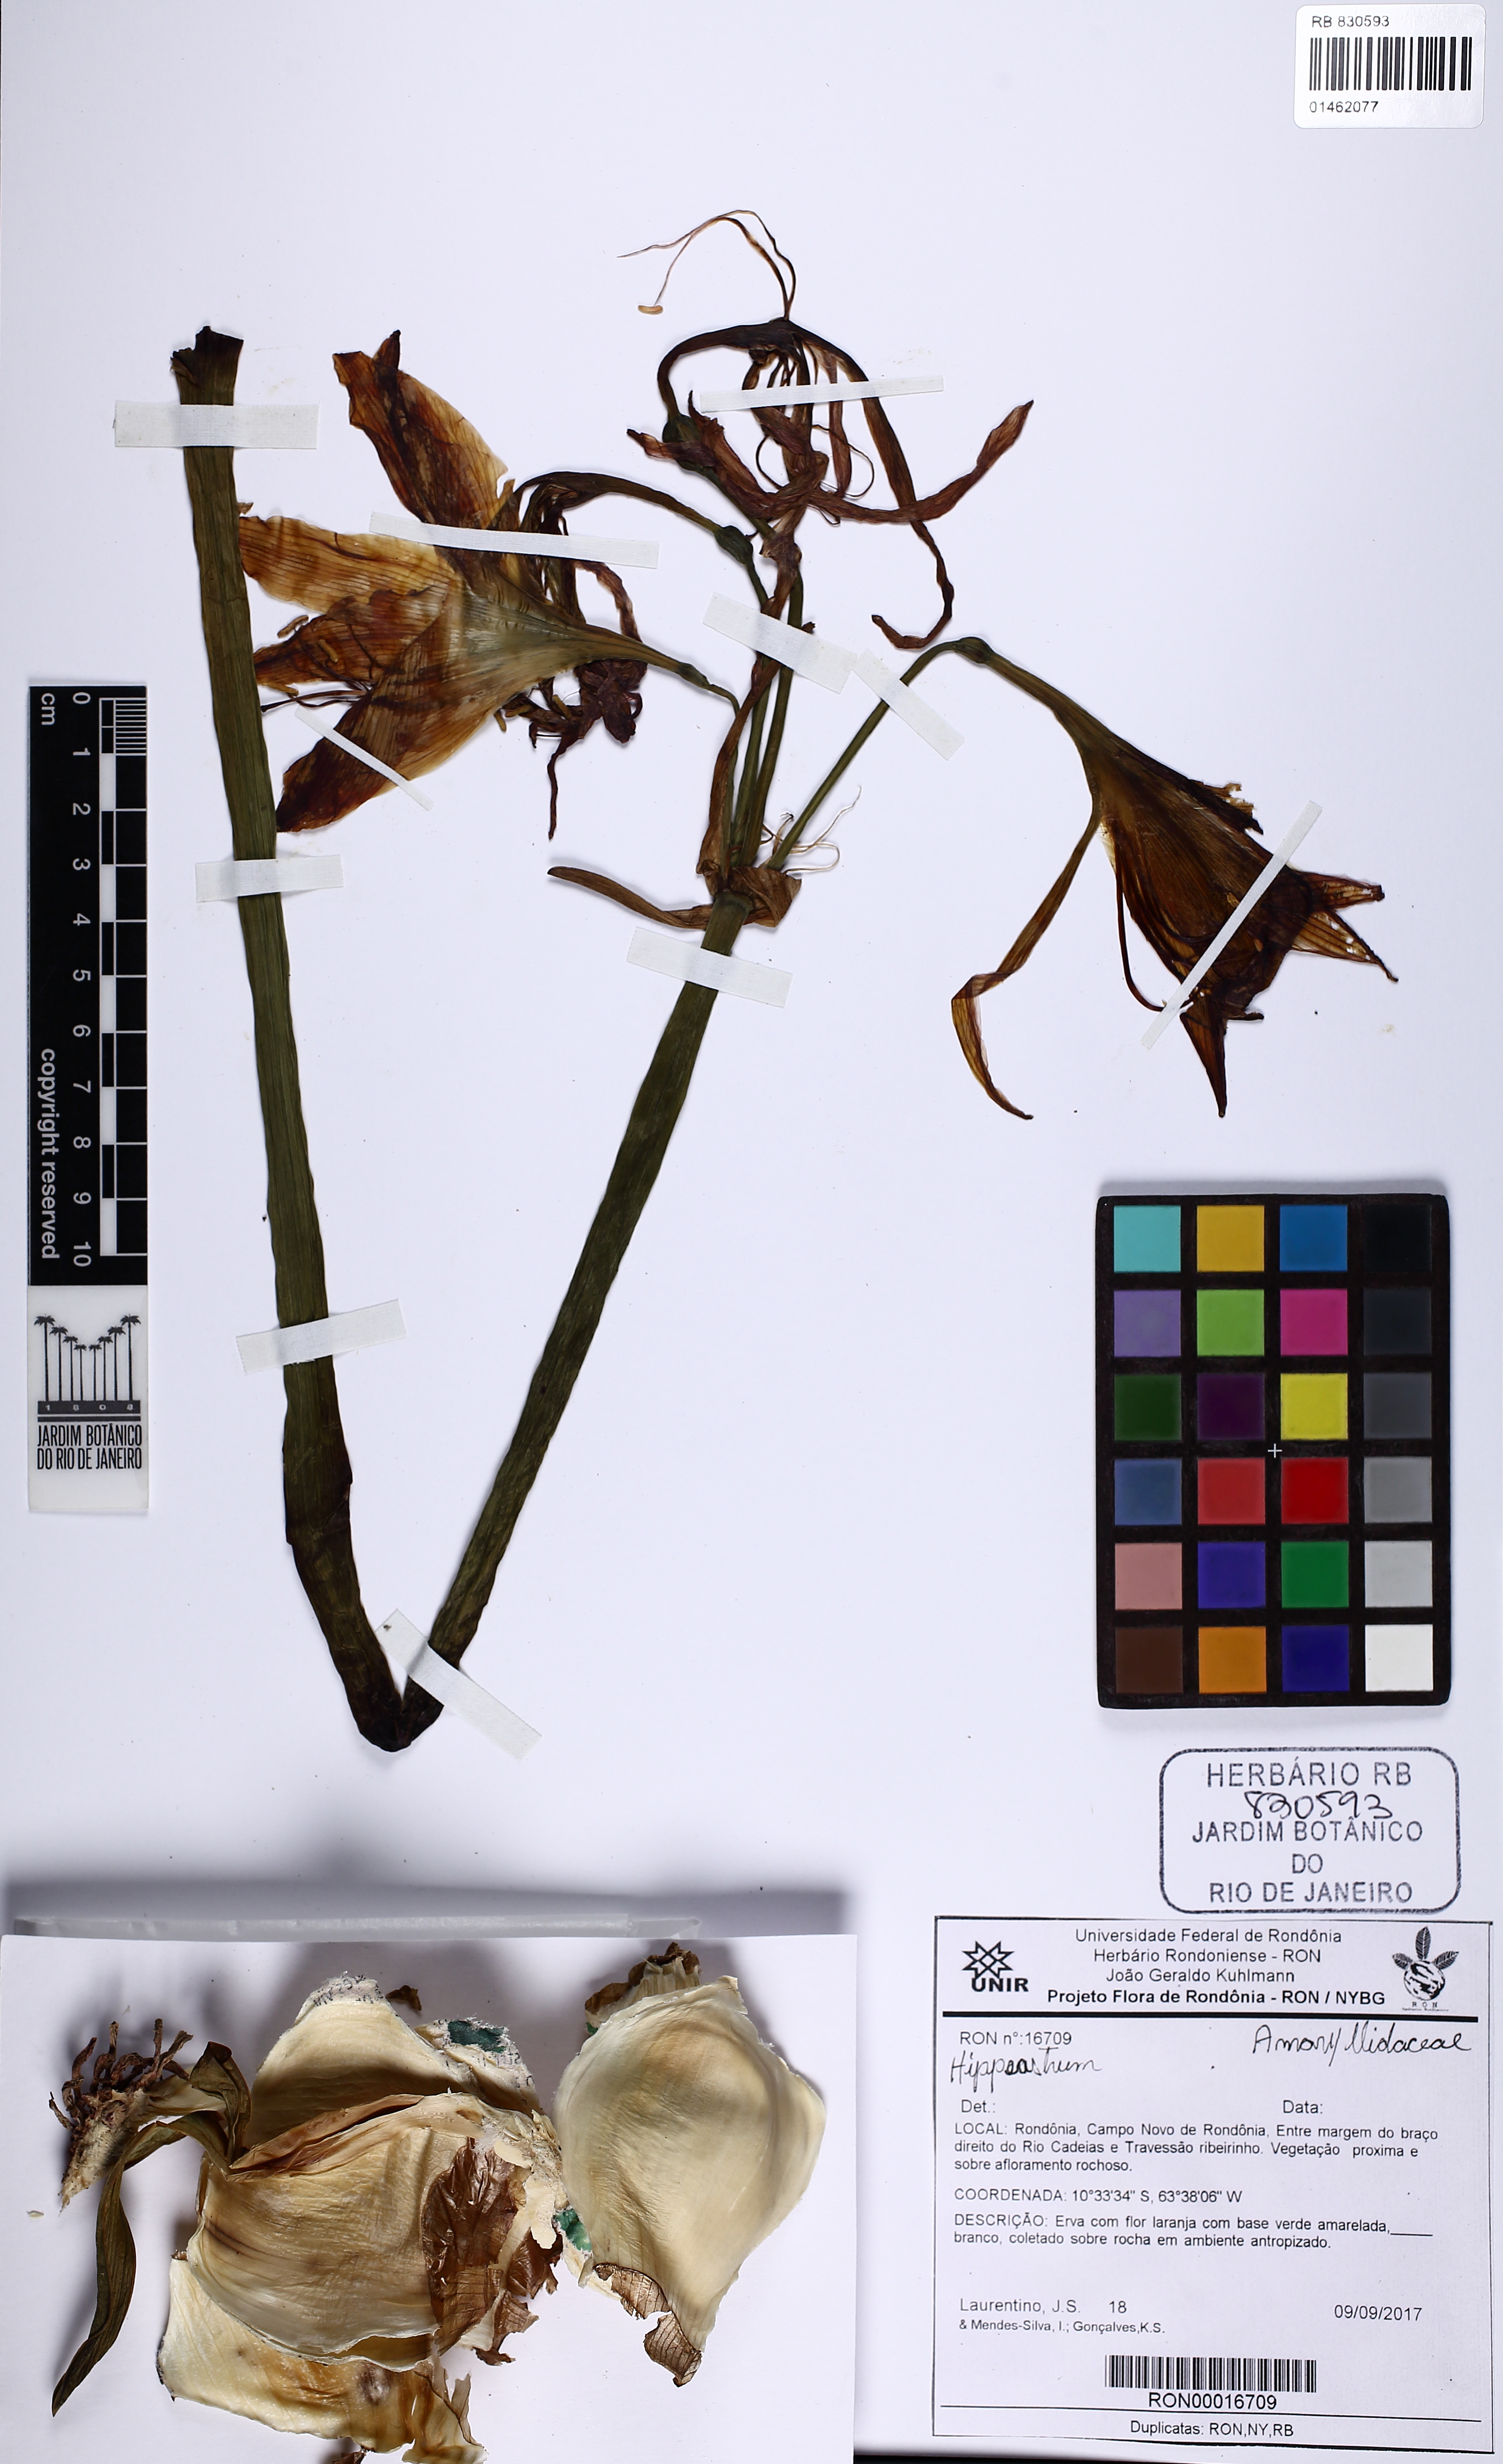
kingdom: Plantae
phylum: Tracheophyta
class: Liliopsida
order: Asparagales
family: Amaryllidaceae
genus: Hippeastrum
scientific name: Hippeastrum
